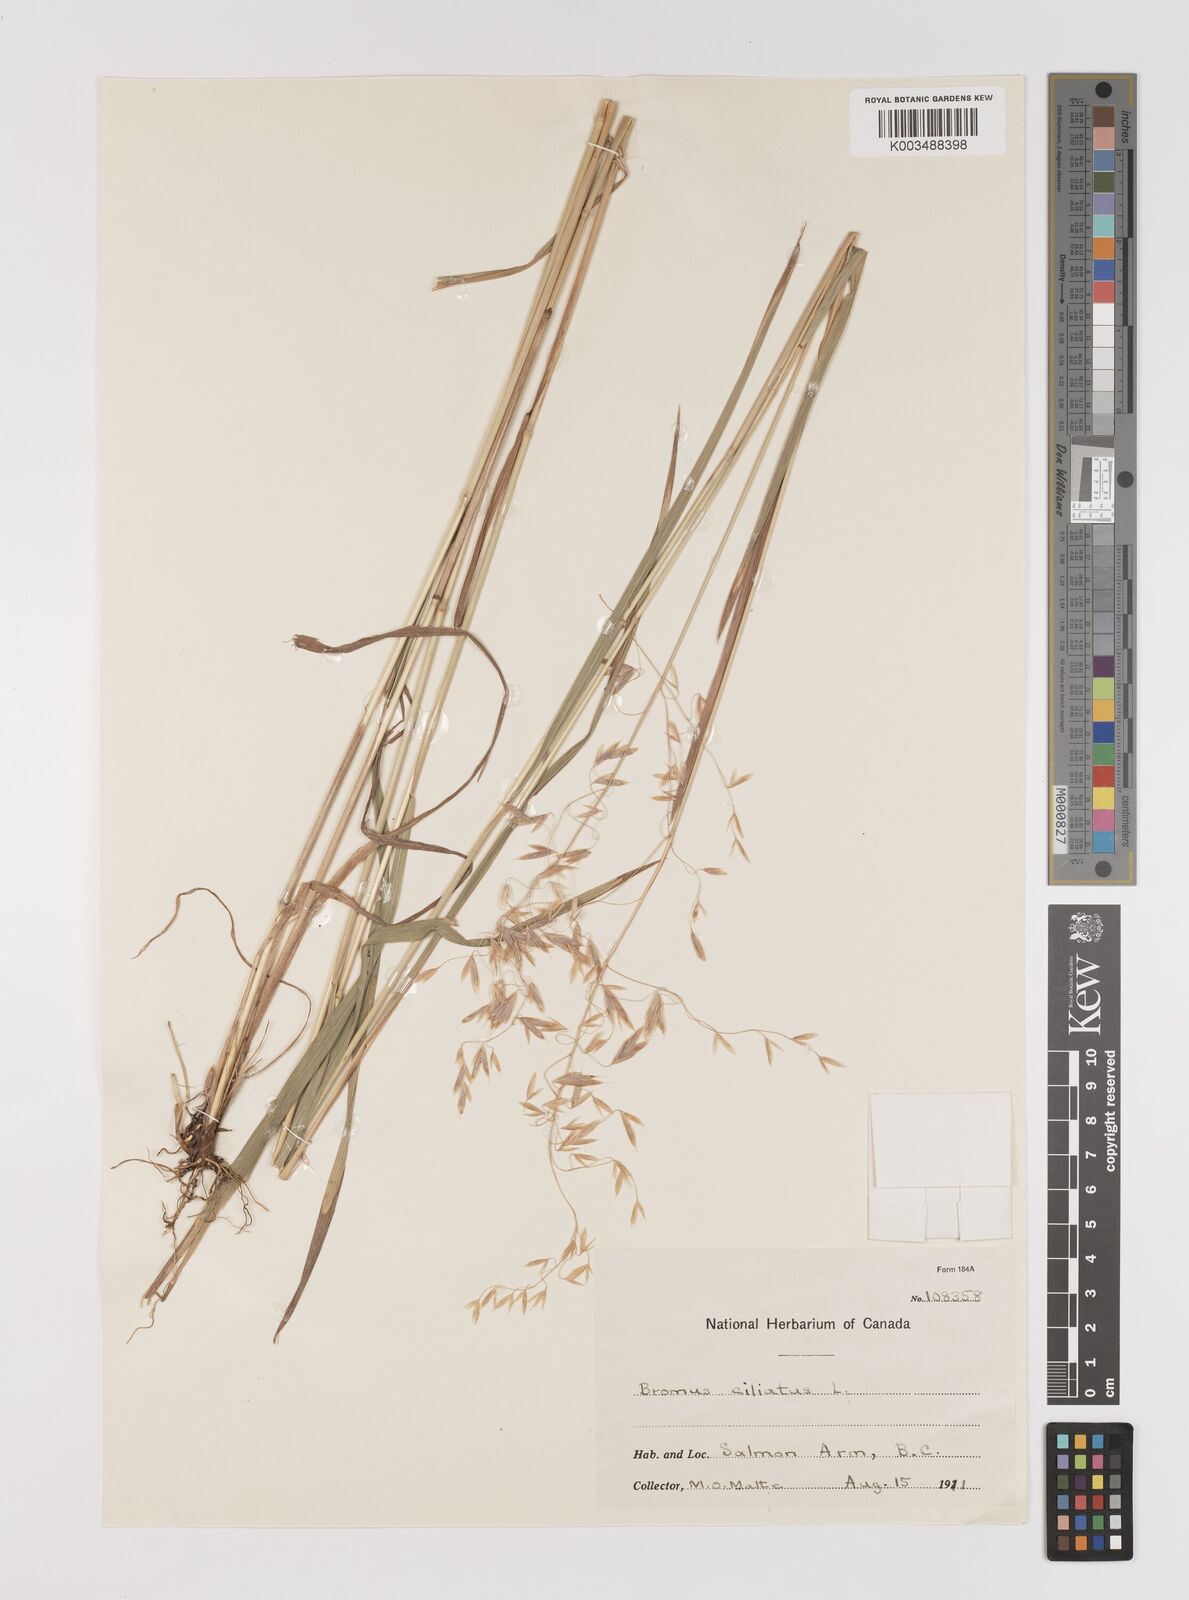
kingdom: Plantae
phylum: Tracheophyta
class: Liliopsida
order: Poales
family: Poaceae
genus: Bromus
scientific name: Bromus ciliatus
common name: Fringe brome
